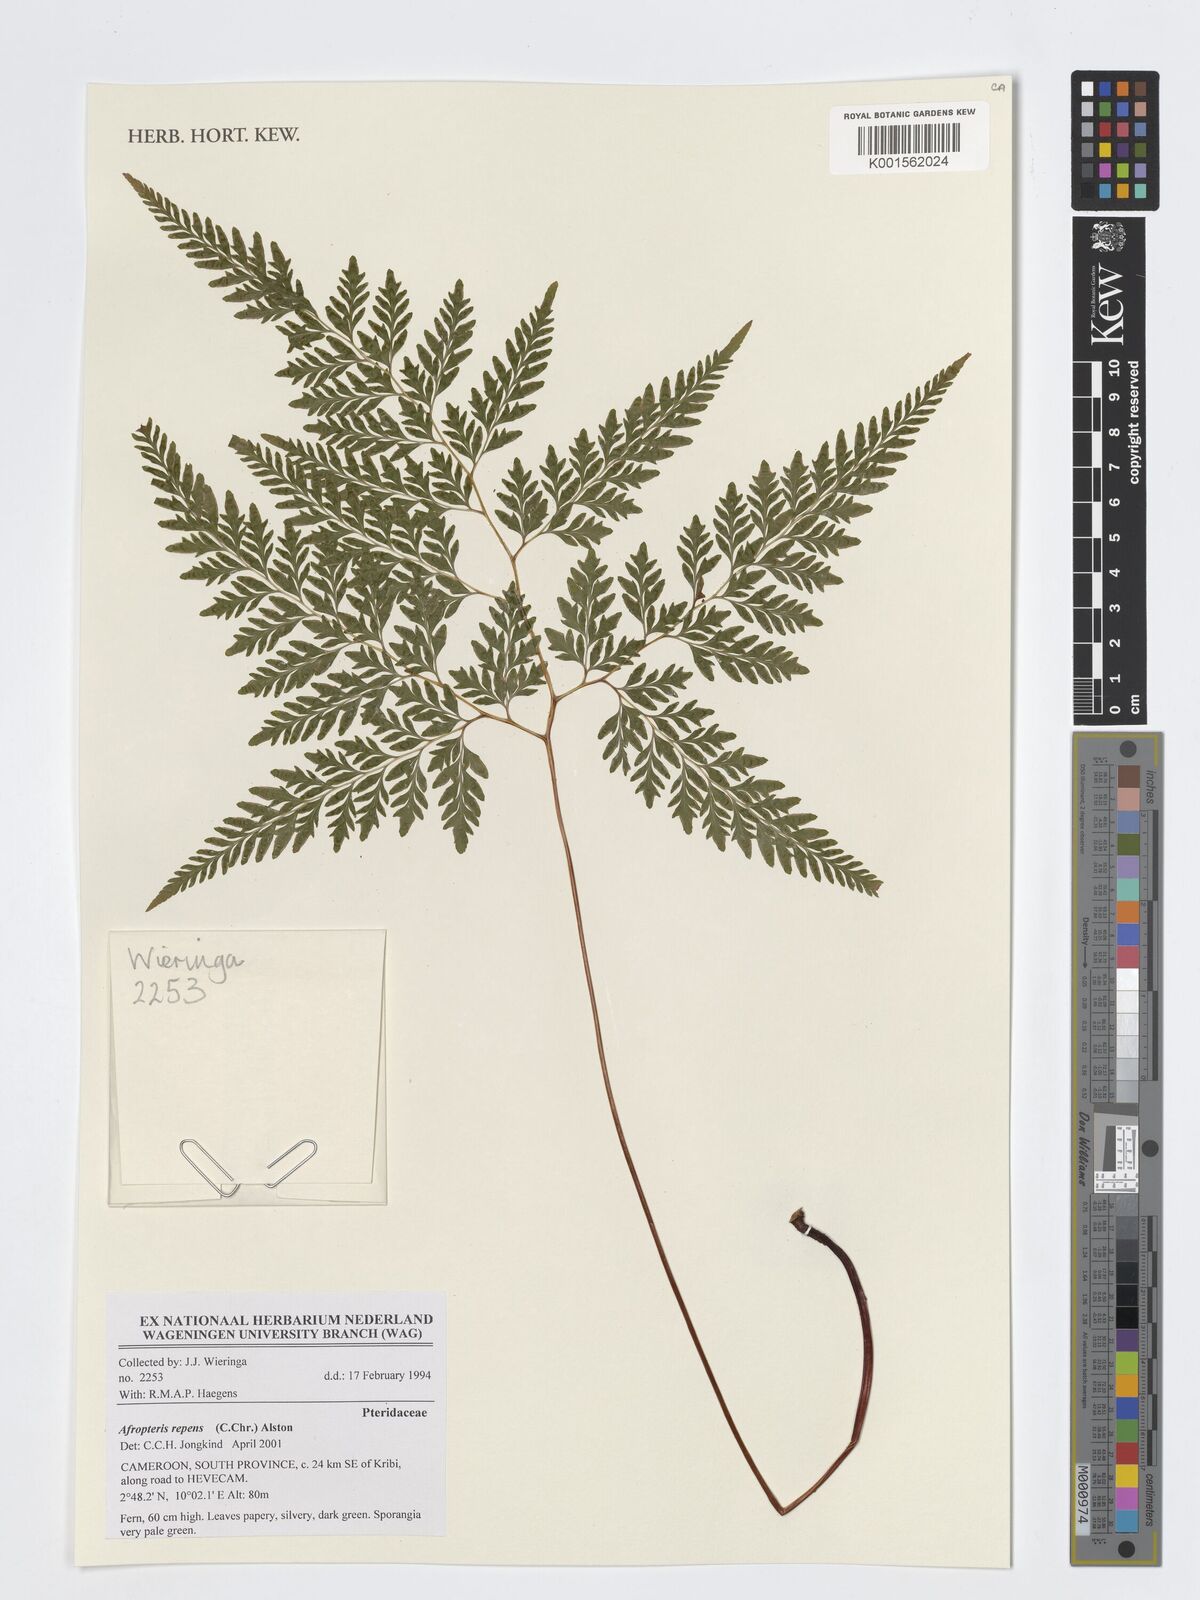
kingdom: Plantae
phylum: Tracheophyta
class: Polypodiopsida
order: Polypodiales
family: Pteridaceae
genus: Pteris
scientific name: Pteris repens
